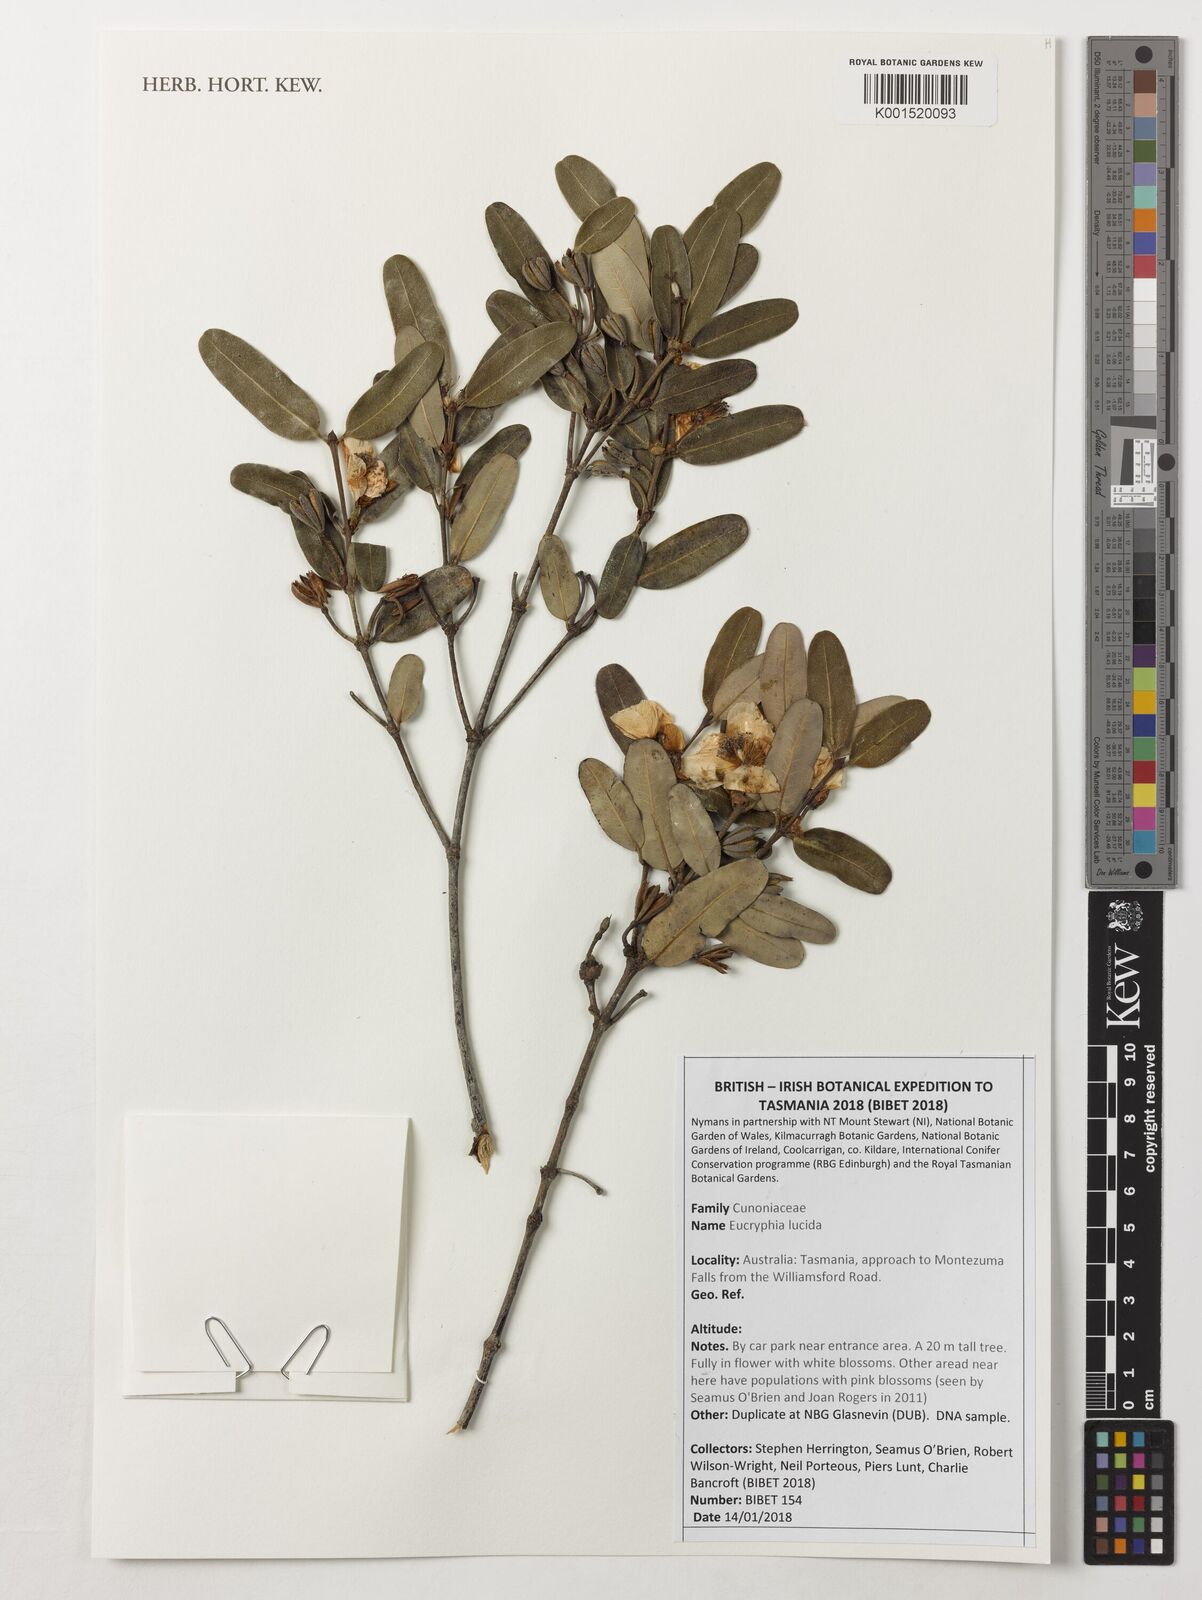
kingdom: Plantae
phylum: Tracheophyta
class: Magnoliopsida
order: Oxalidales
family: Cunoniaceae
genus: Eucryphia
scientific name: Eucryphia lucida
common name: Leatherwood
